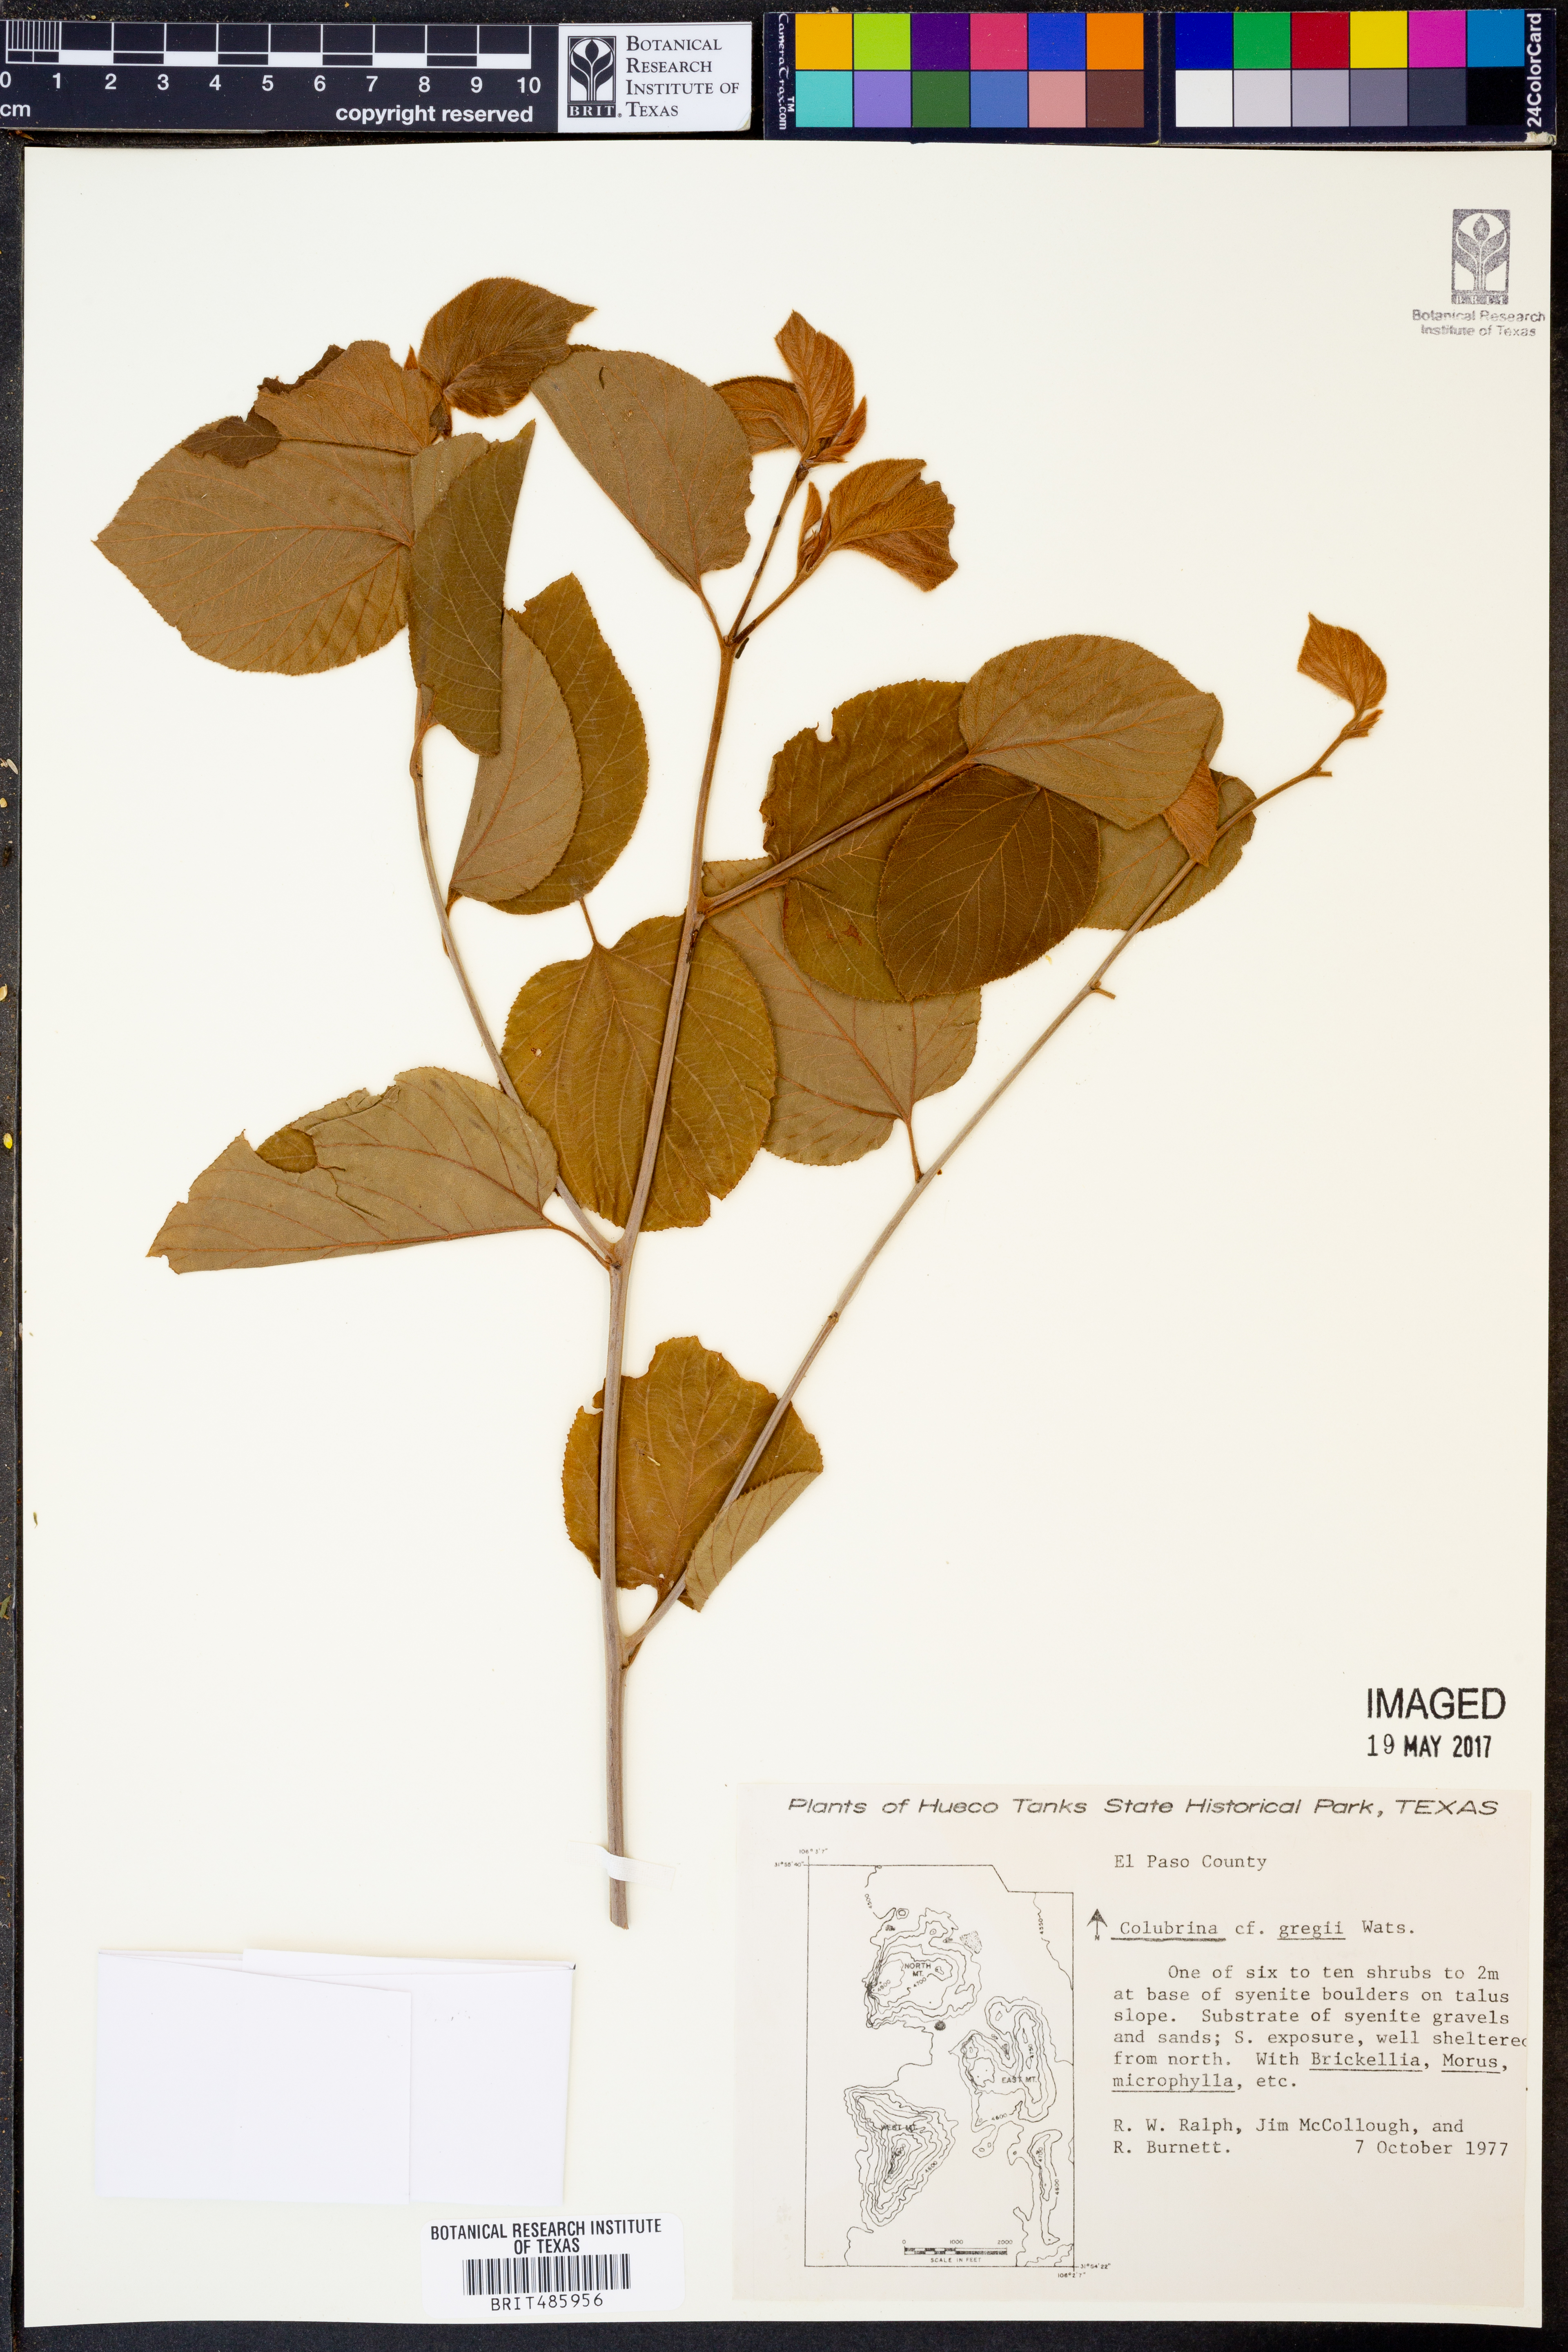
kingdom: Plantae
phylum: Tracheophyta
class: Magnoliopsida
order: Rosales
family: Rhamnaceae
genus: Colubrina
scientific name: Colubrina greggii
